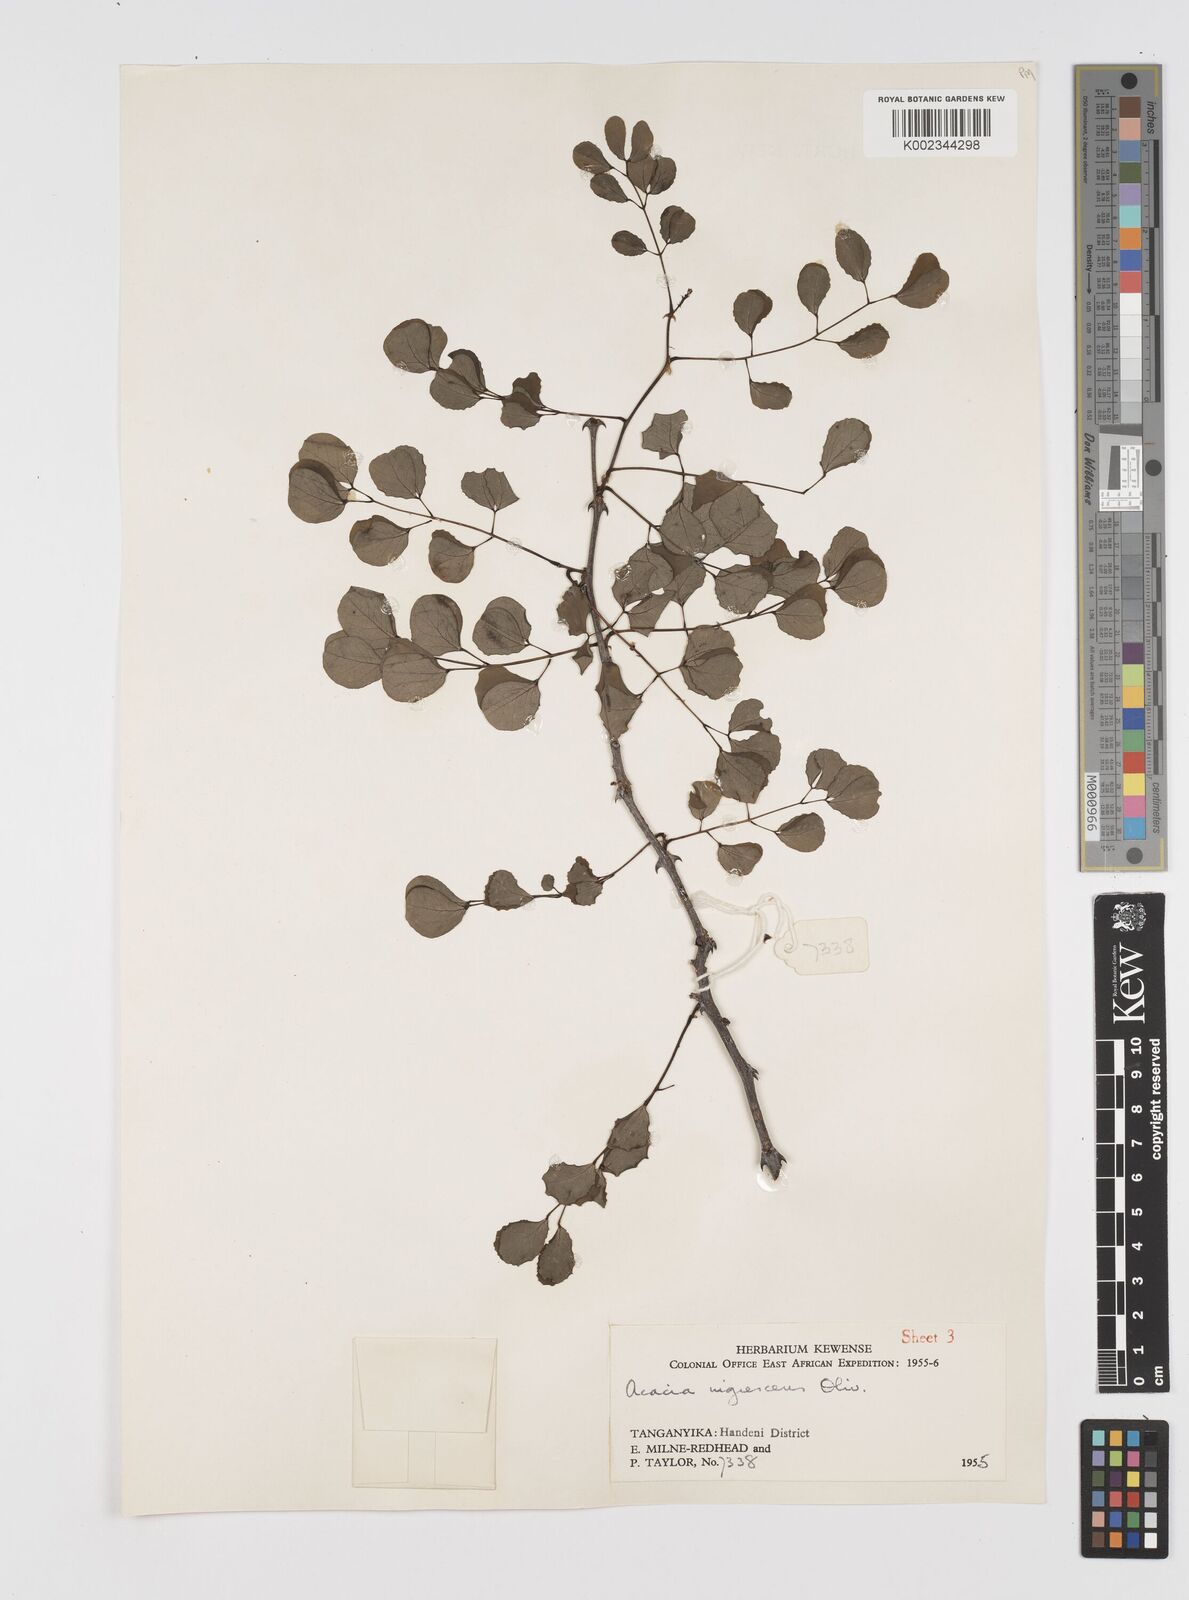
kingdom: Plantae
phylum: Tracheophyta
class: Magnoliopsida
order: Fabales
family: Fabaceae
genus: Senegalia
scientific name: Senegalia nigrescens
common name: Knobthorn
